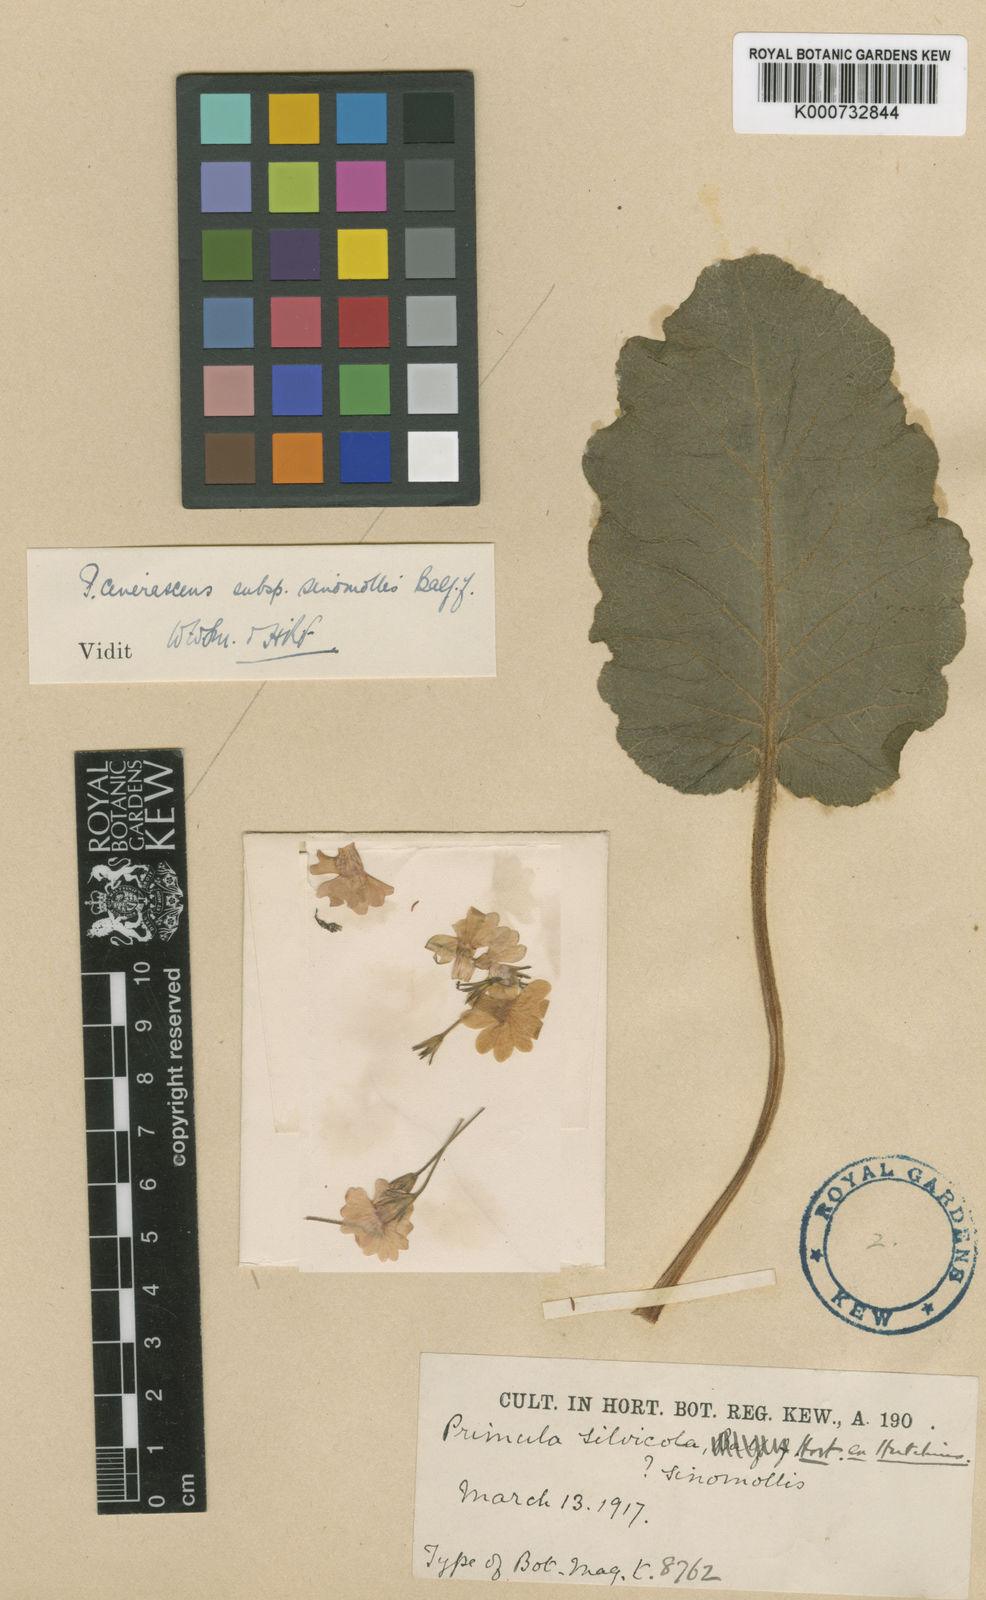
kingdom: Plantae
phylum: Tracheophyta
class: Magnoliopsida
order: Ericales
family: Primulaceae
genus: Primula
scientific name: Primula cinerascens
